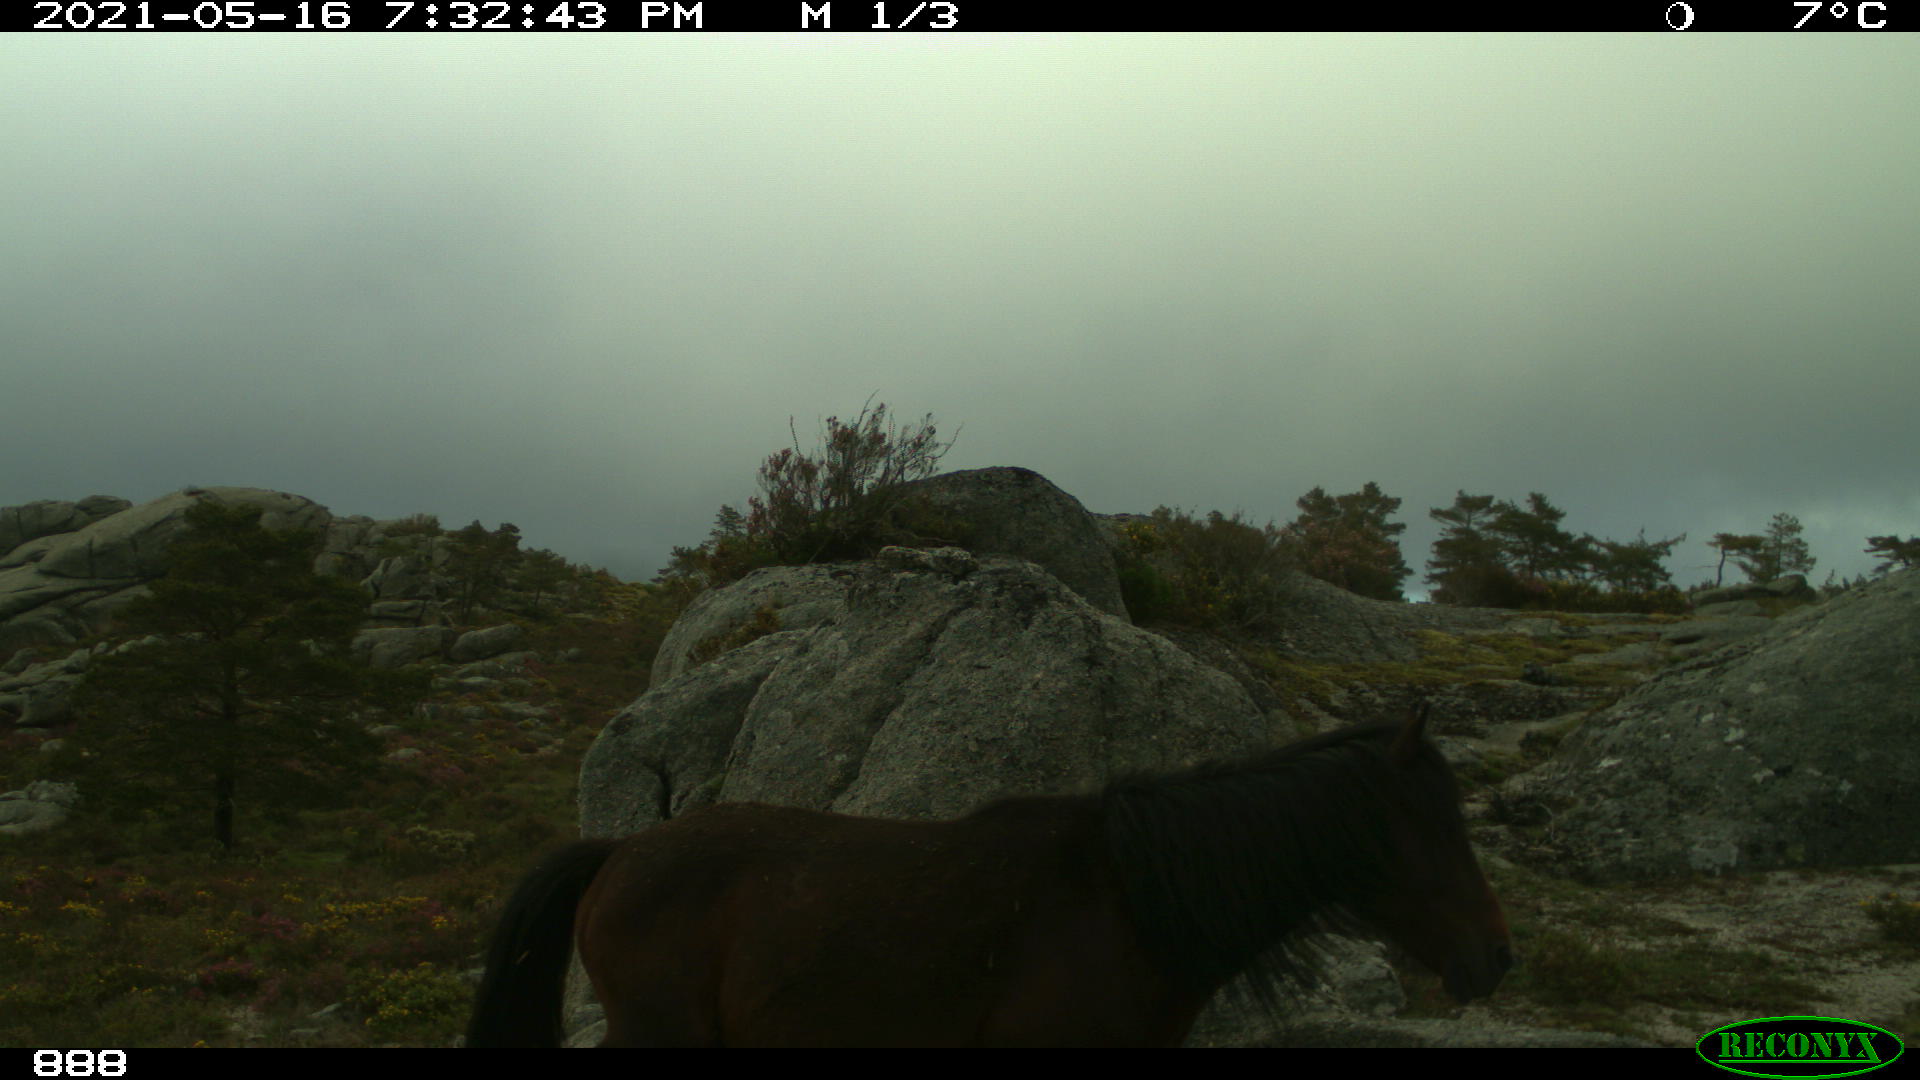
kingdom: Animalia
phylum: Chordata
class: Mammalia
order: Perissodactyla
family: Equidae
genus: Equus
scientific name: Equus caballus
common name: Horse
